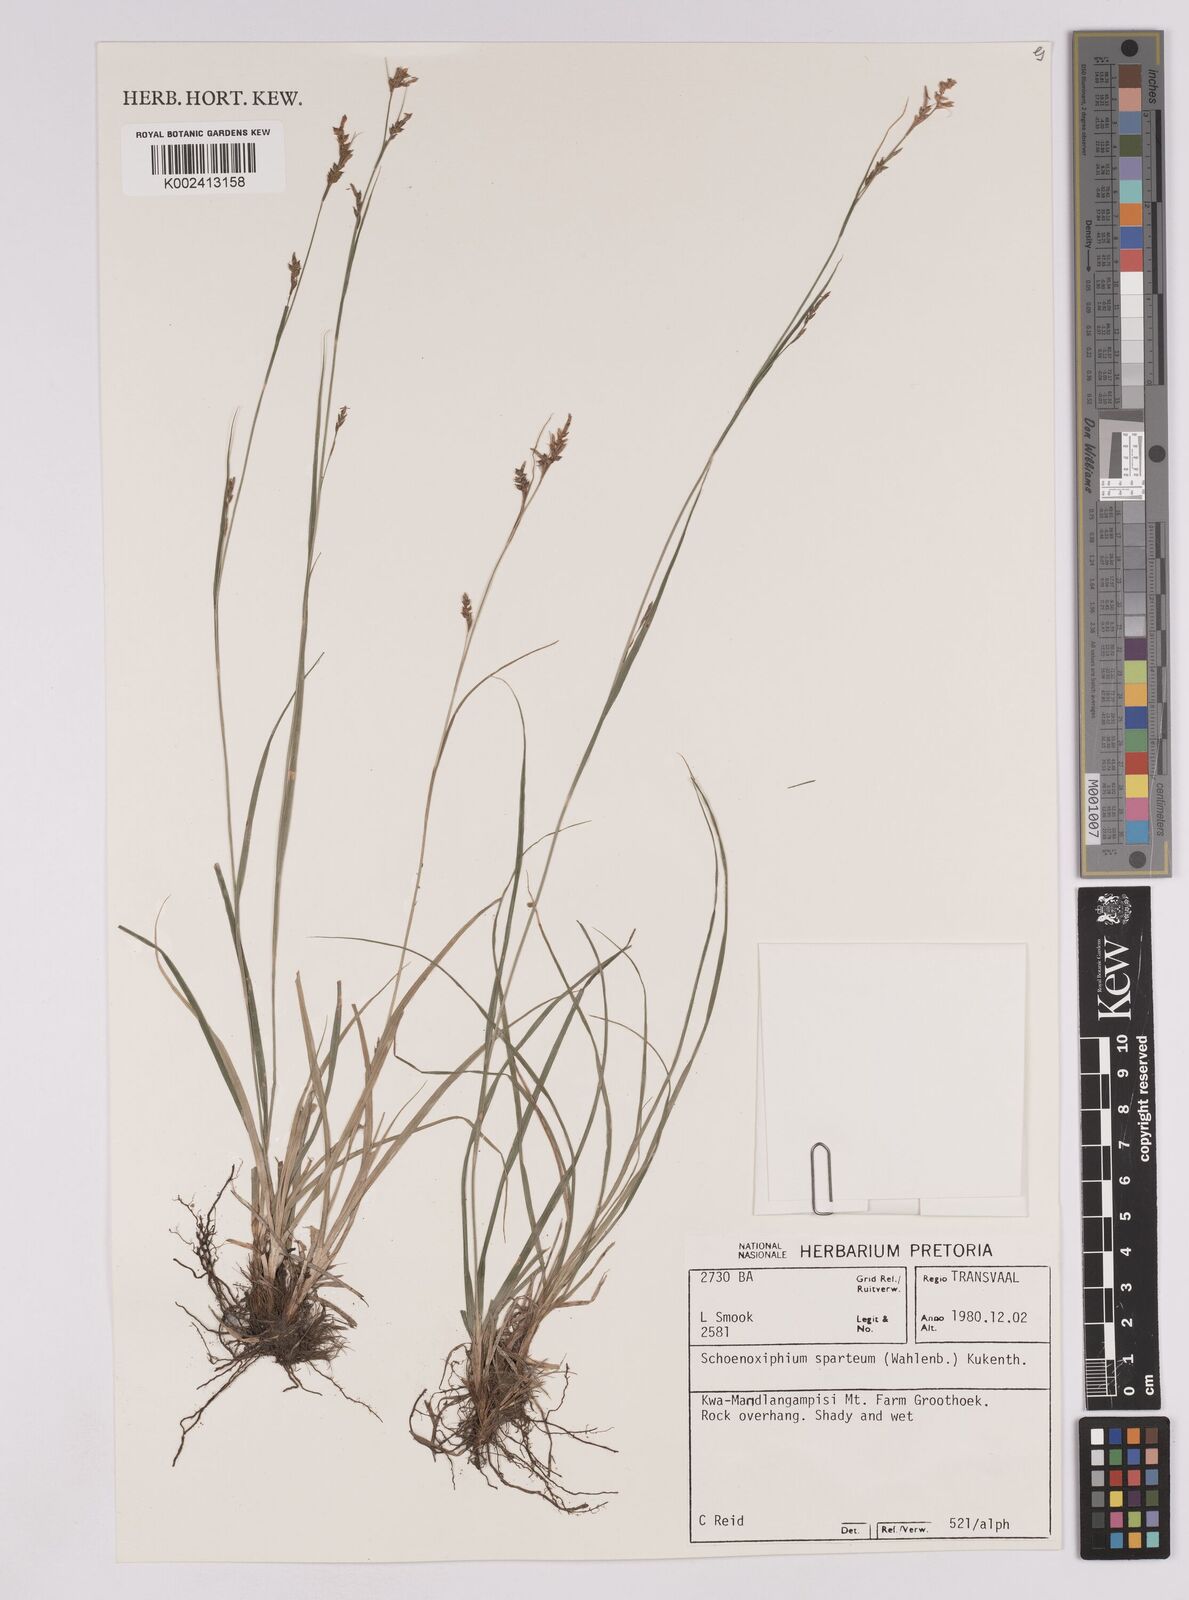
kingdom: Plantae
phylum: Tracheophyta
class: Liliopsida
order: Poales
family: Cyperaceae
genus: Carex
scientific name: Carex spartea
